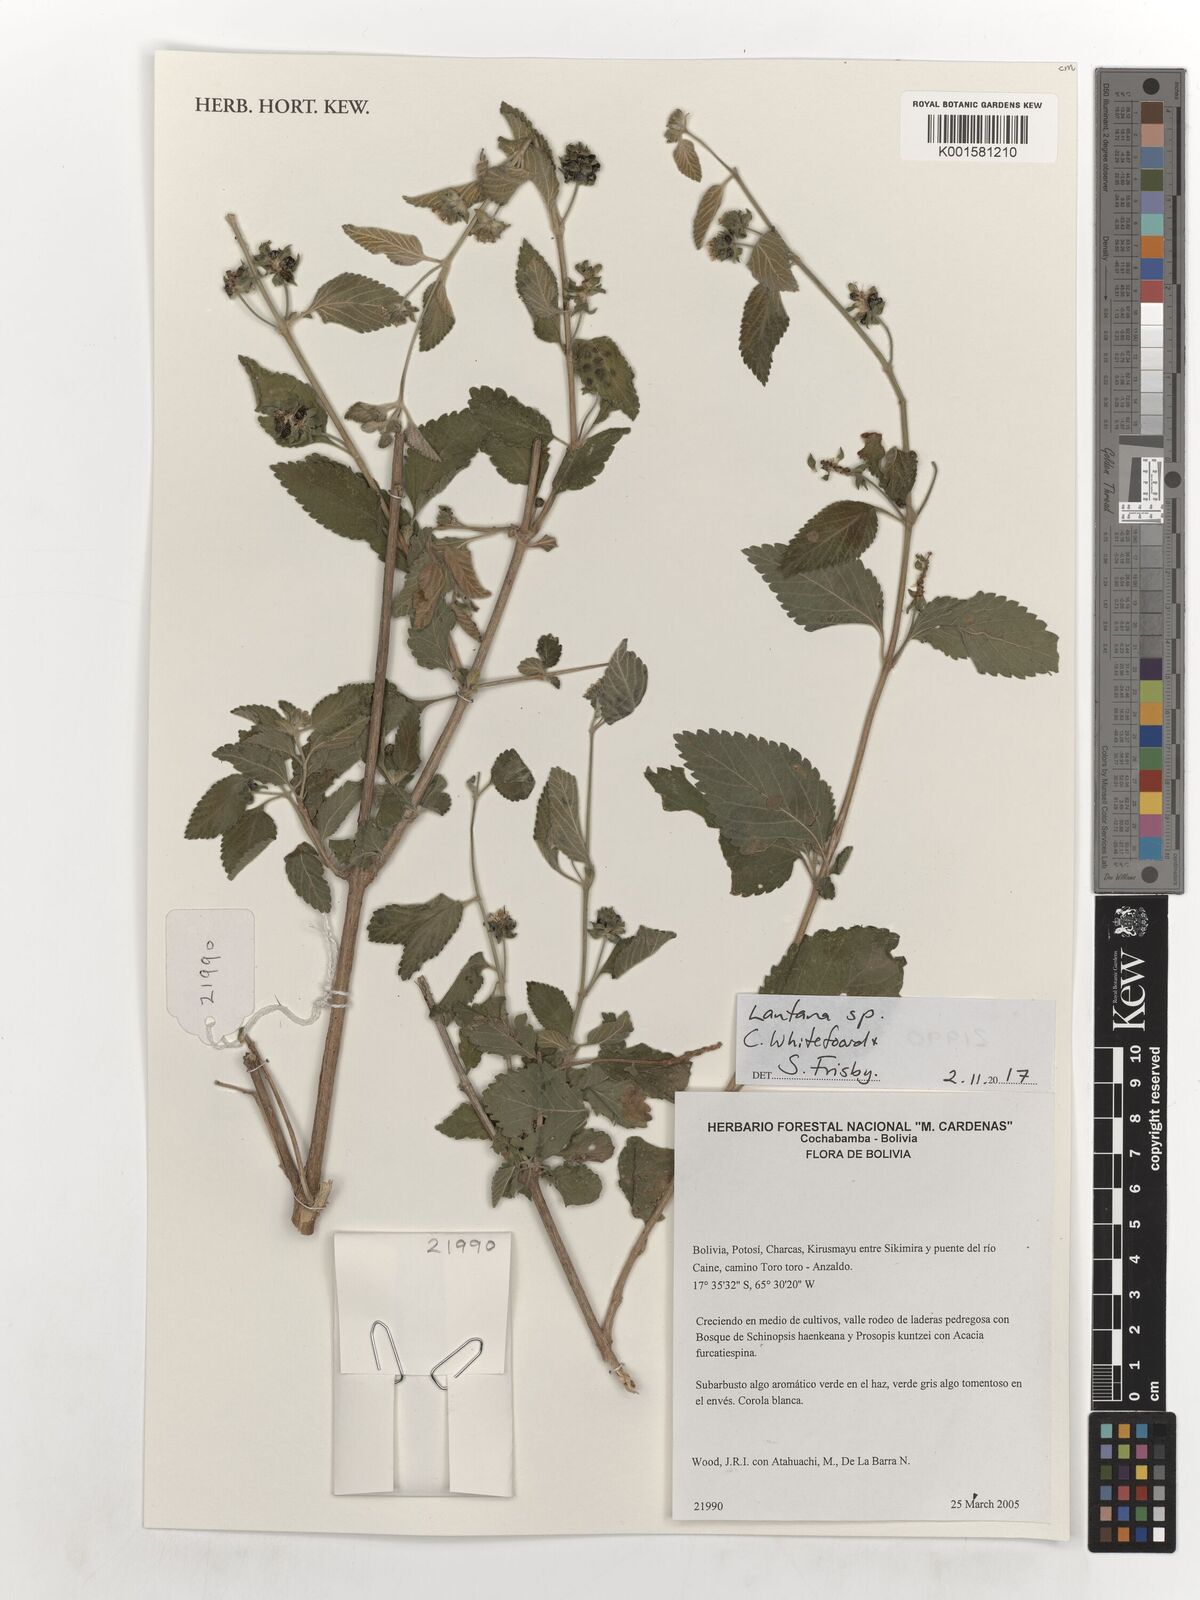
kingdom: Plantae
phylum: Tracheophyta
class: Magnoliopsida
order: Lamiales
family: Verbenaceae
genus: Lantana
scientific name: Lantana
